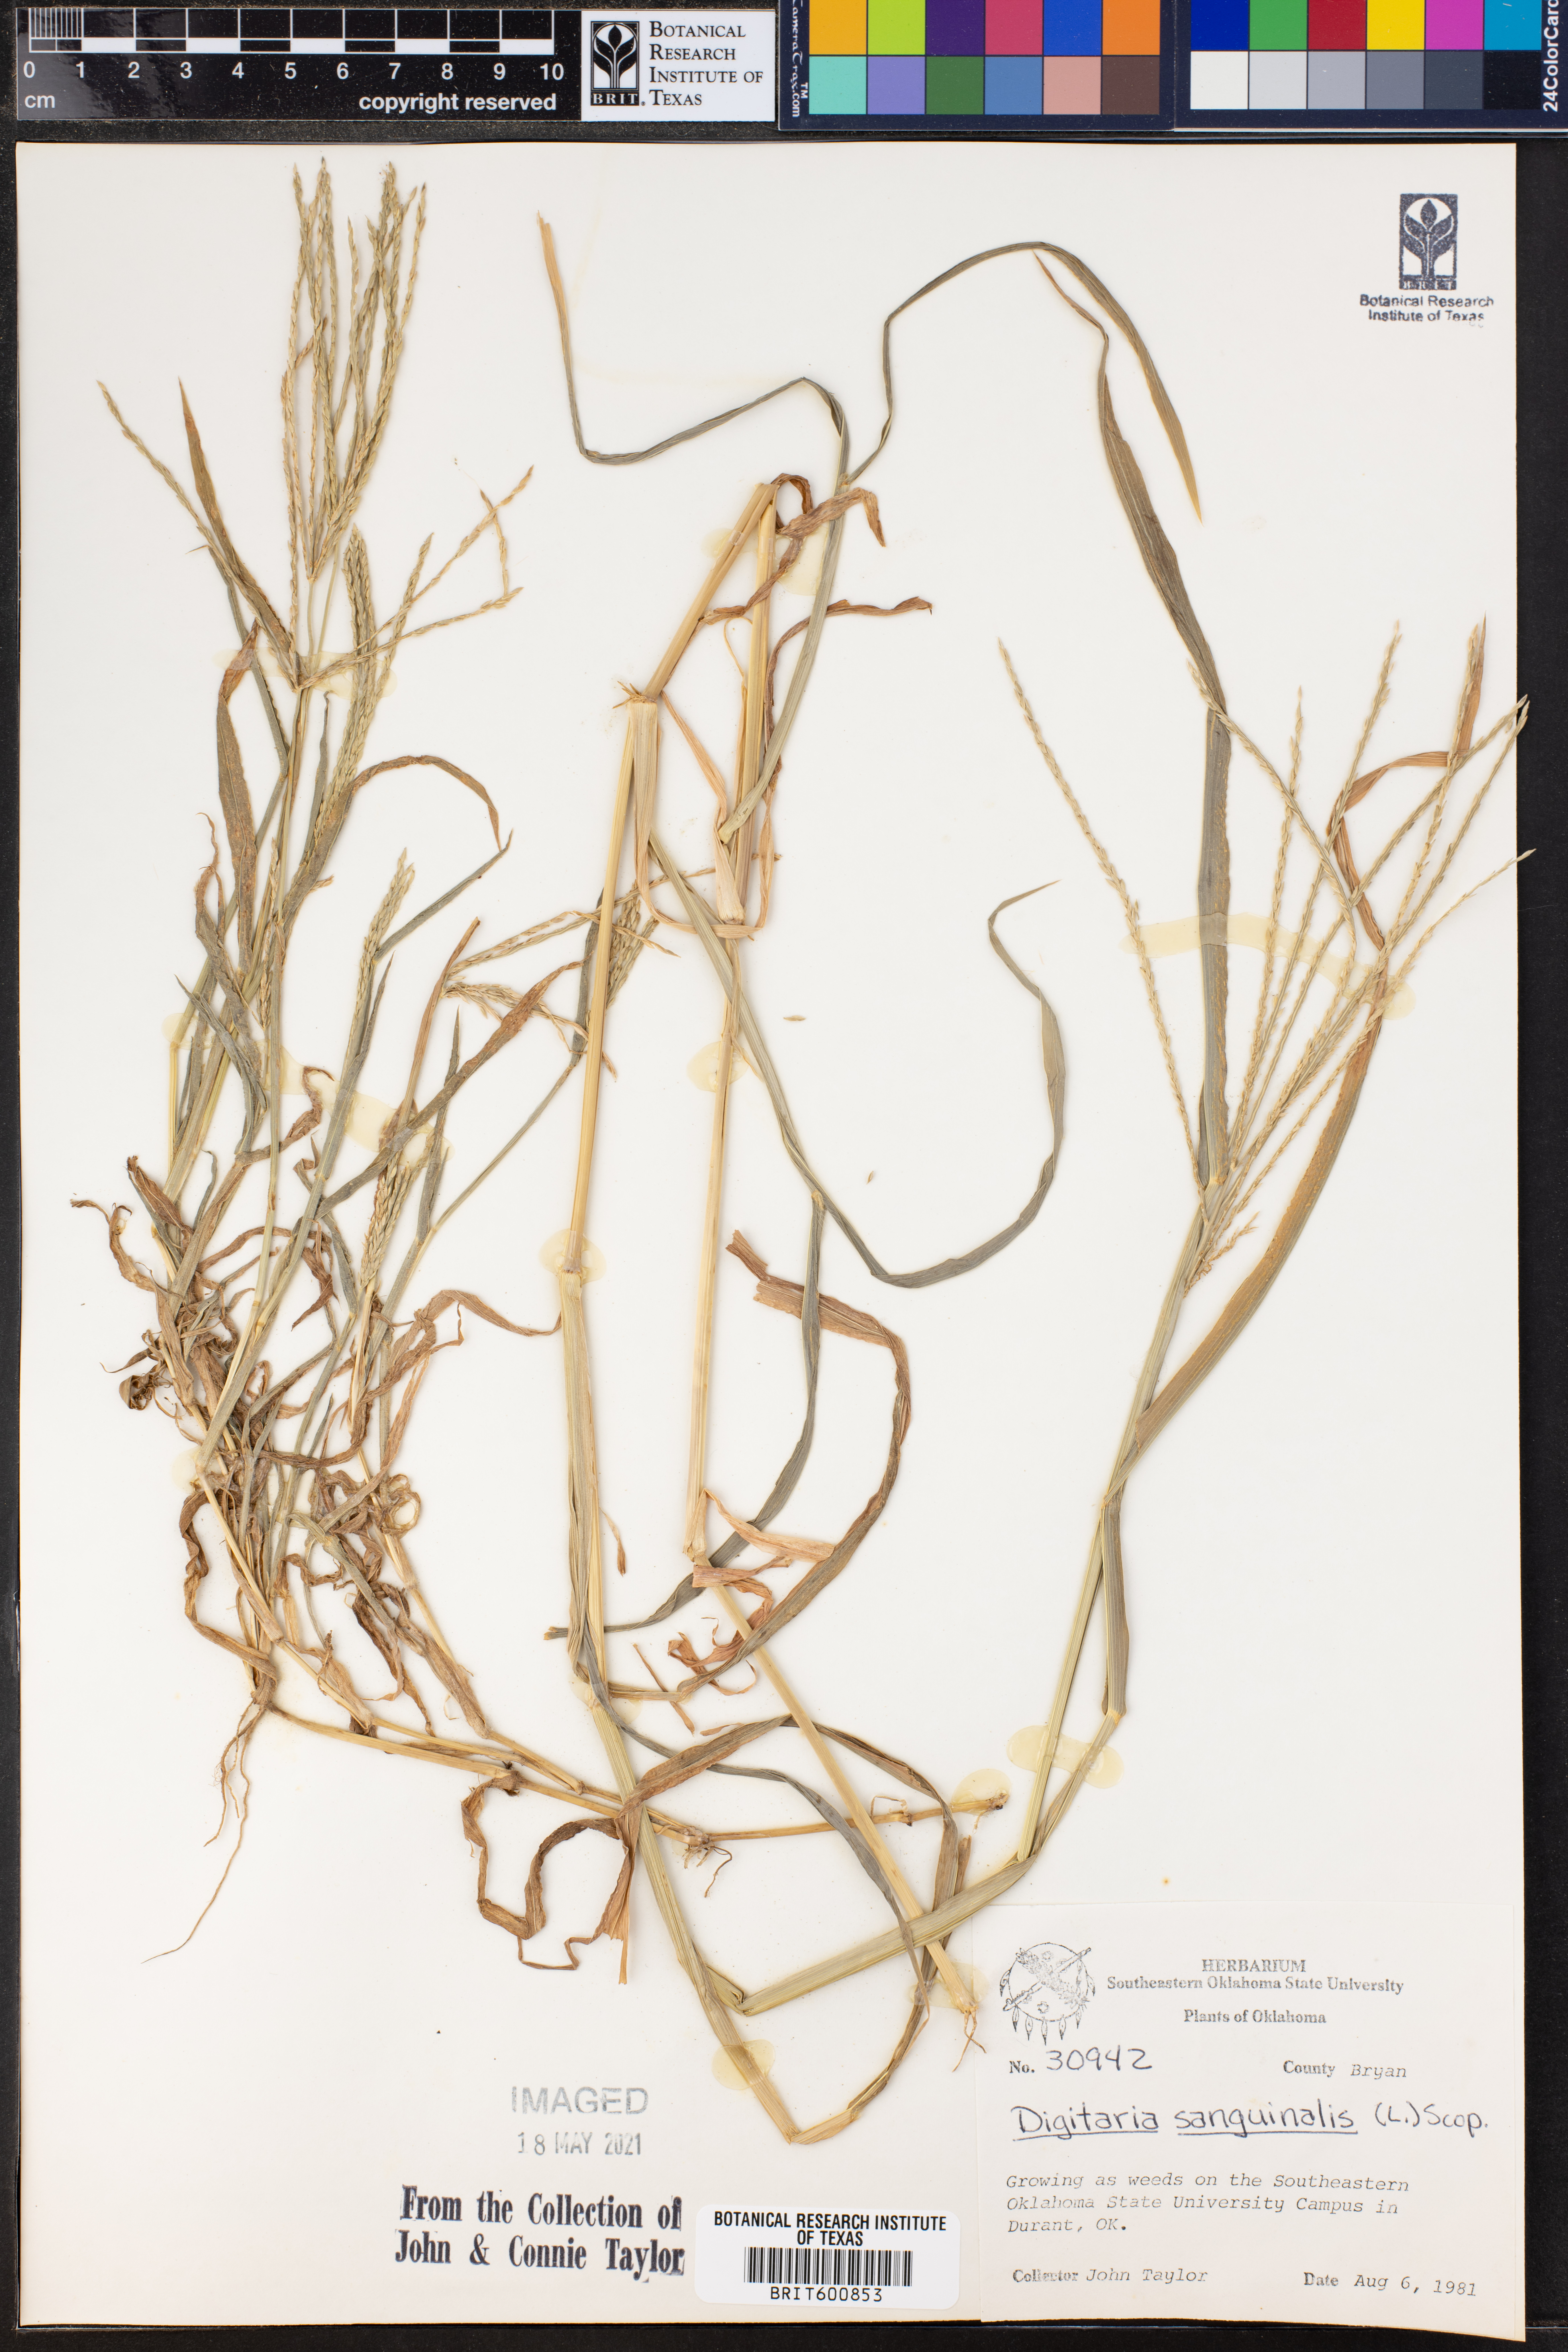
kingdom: Plantae
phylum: Tracheophyta
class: Liliopsida
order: Poales
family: Poaceae
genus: Digitaria
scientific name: Digitaria sanguinalis
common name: Hairy crabgrass
